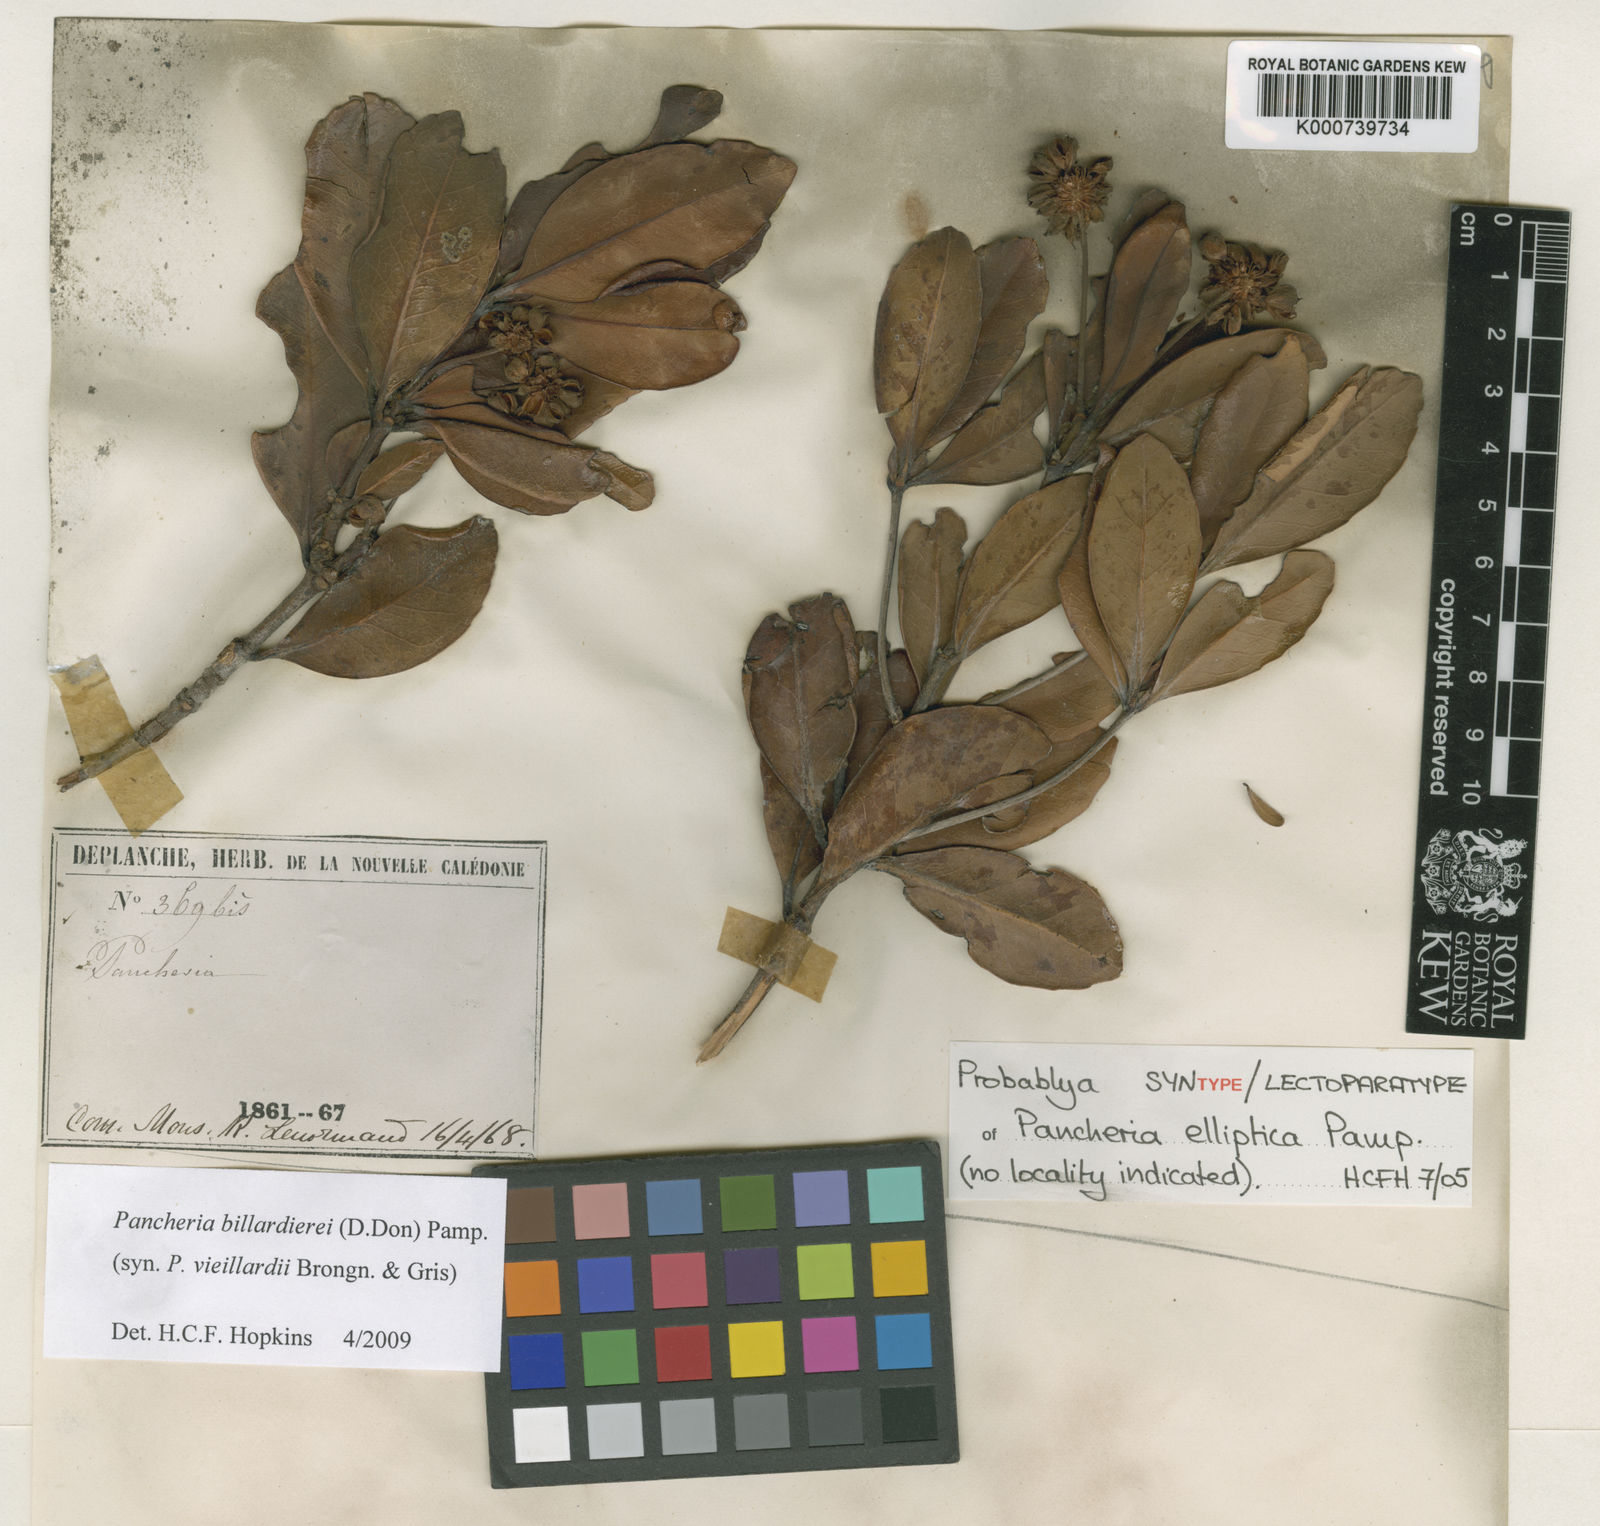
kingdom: Plantae
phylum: Tracheophyta
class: Magnoliopsida
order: Oxalidales
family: Cunoniaceae
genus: Pancheria
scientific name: Pancheria billardierei
